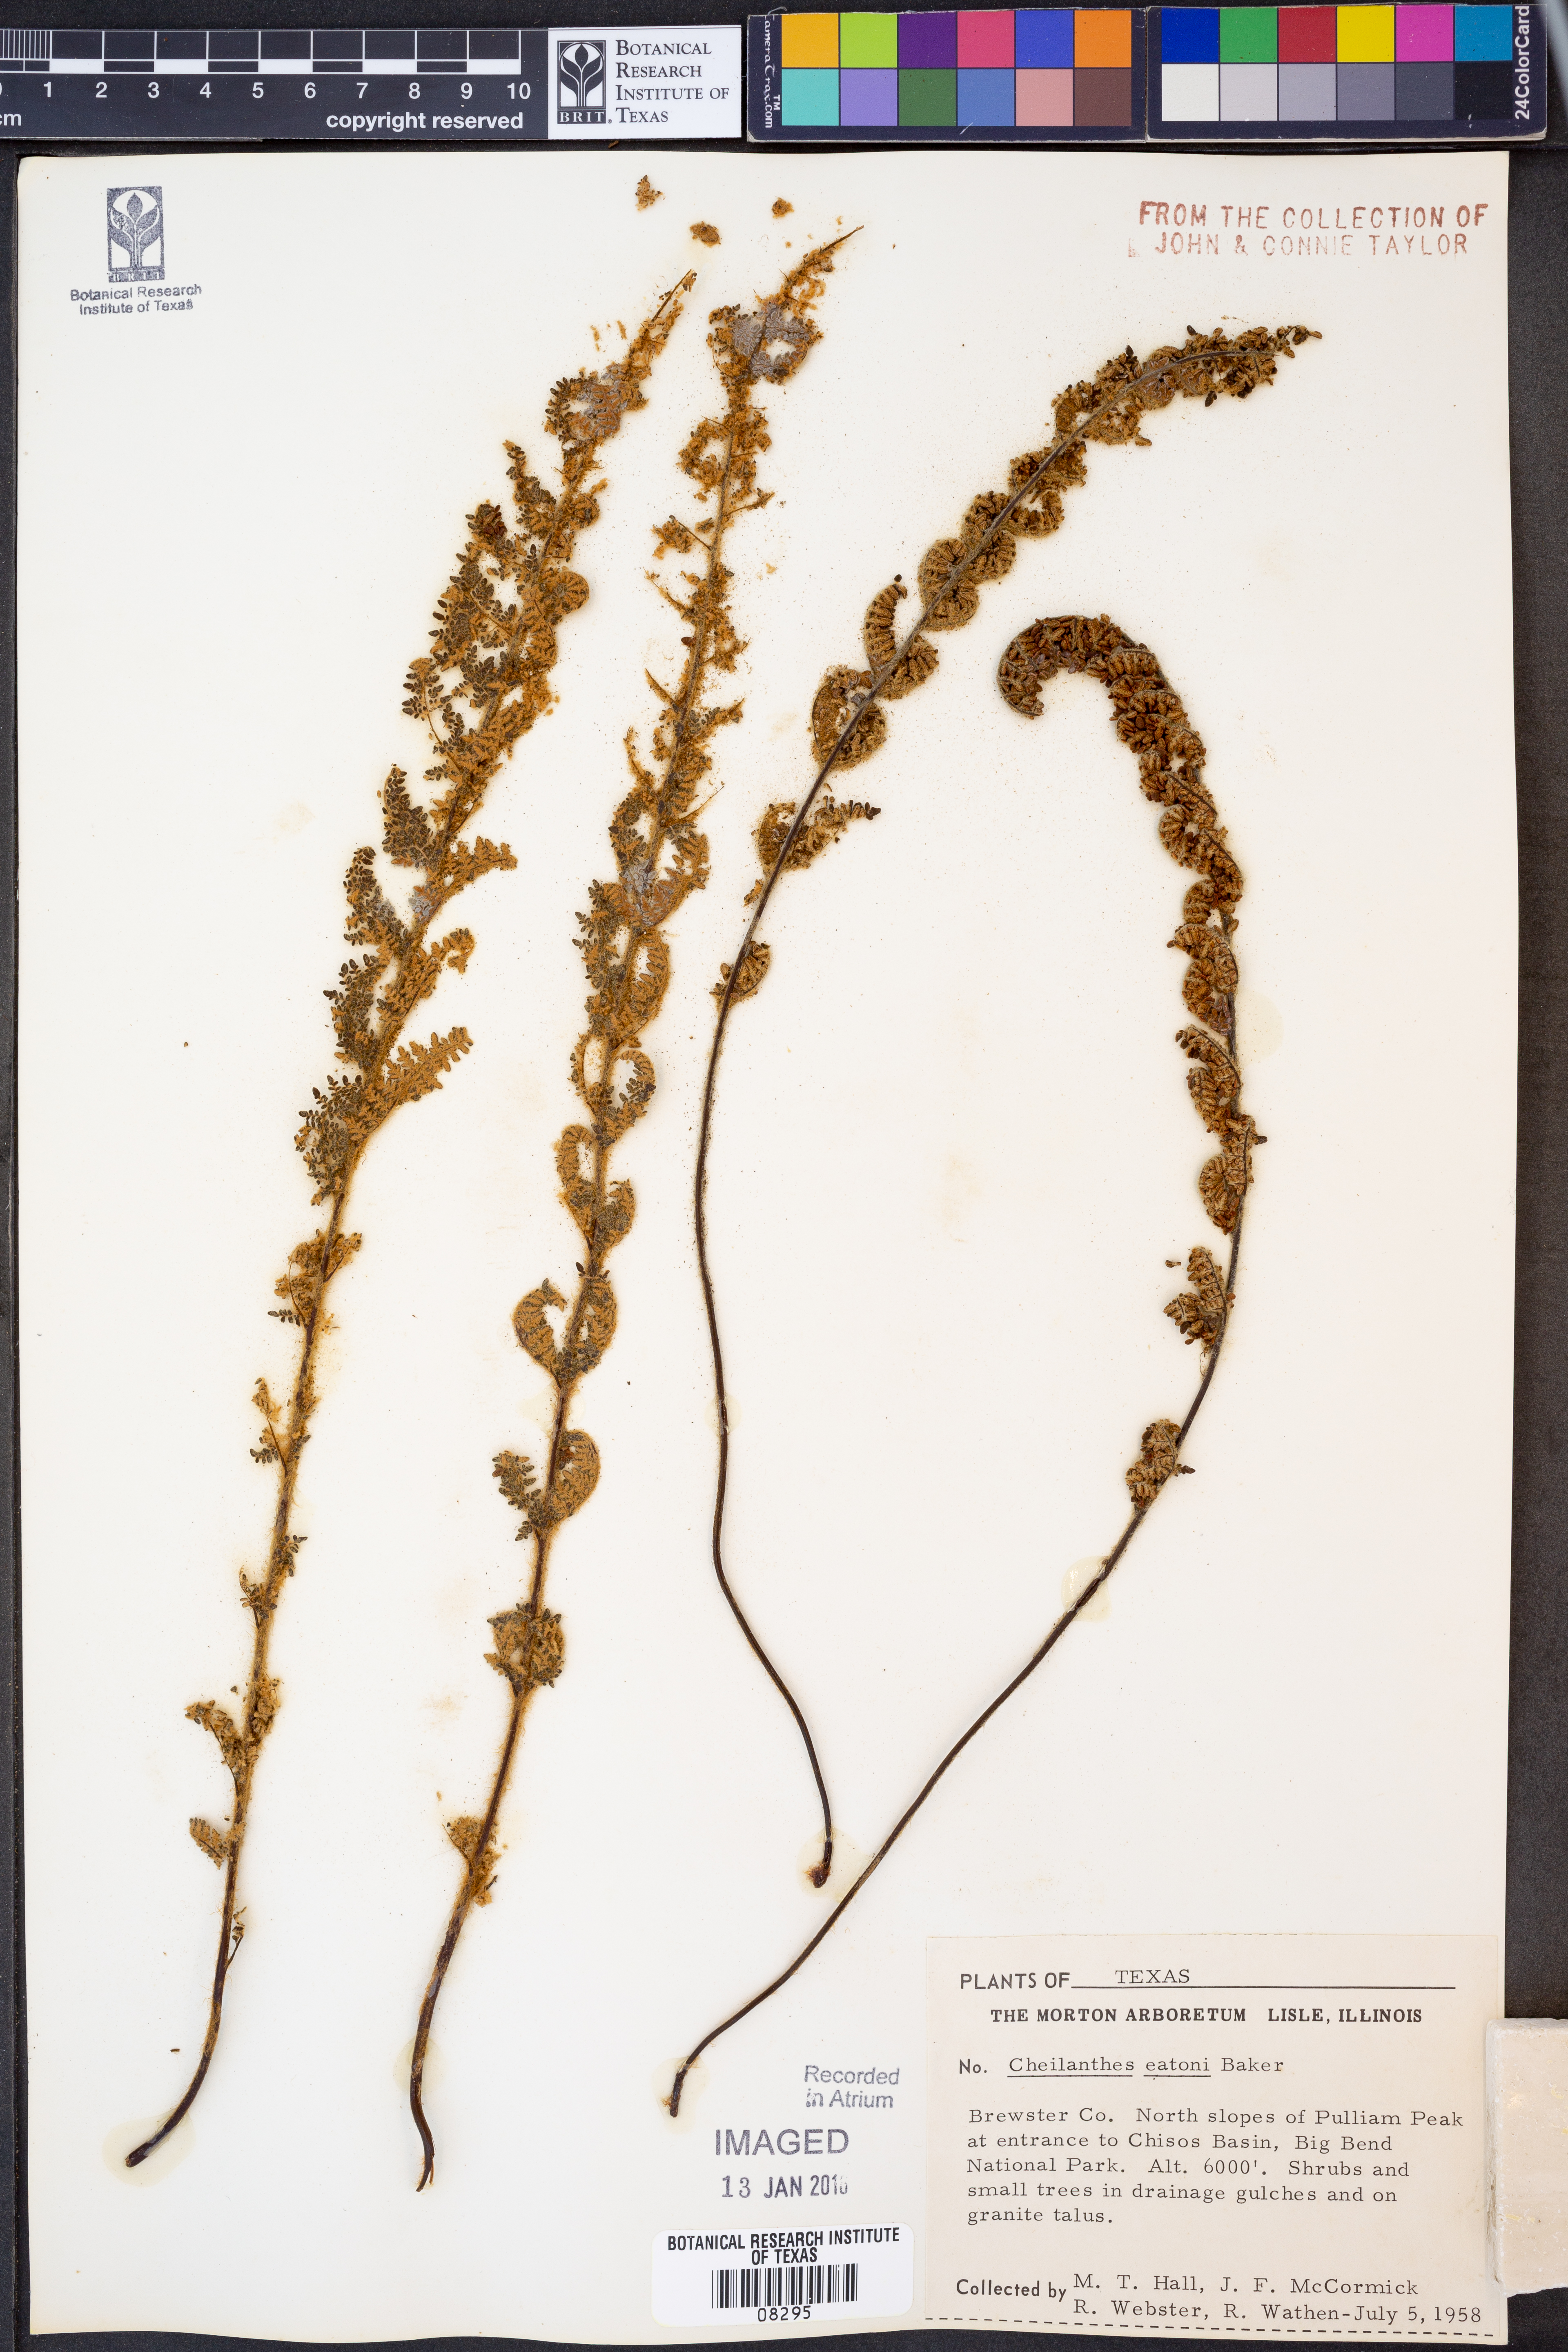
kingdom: Plantae
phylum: Tracheophyta
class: Polypodiopsida
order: Polypodiales
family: Pteridaceae
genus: Myriopteris
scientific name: Myriopteris rufa
